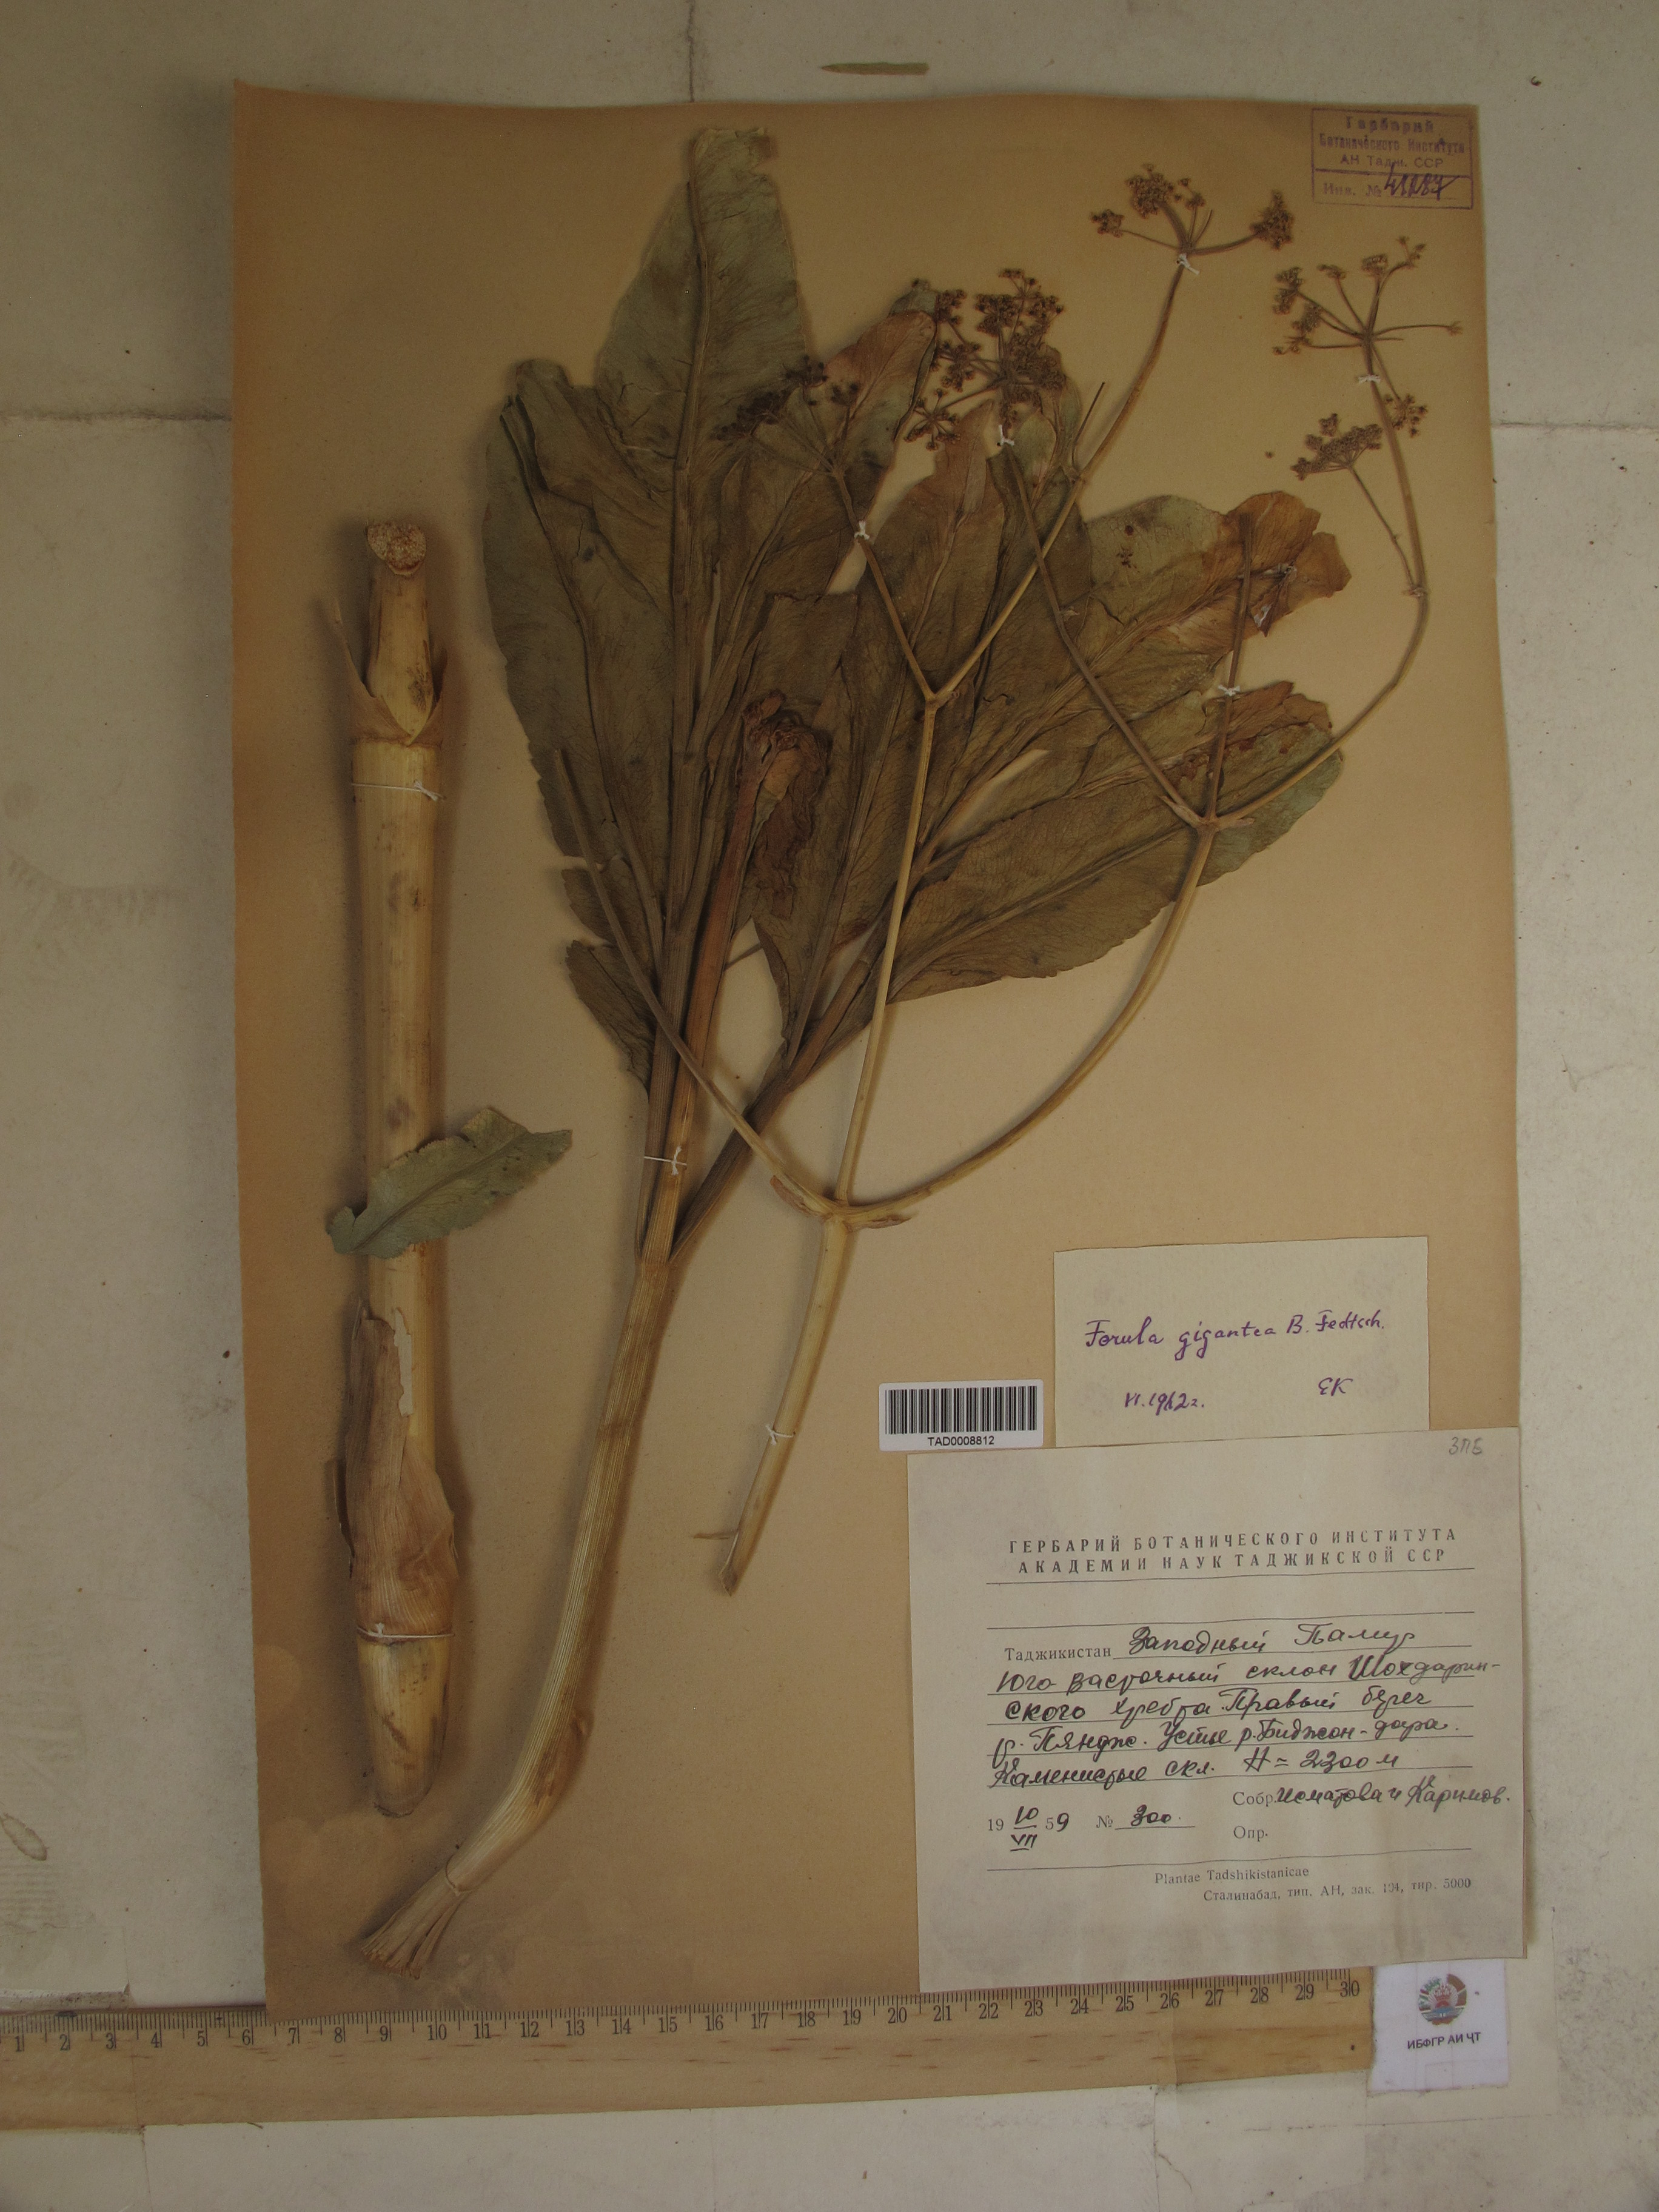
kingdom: Plantae
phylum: Tracheophyta
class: Magnoliopsida
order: Apiales
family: Apiaceae
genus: Ferula
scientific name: Ferula gigantea
